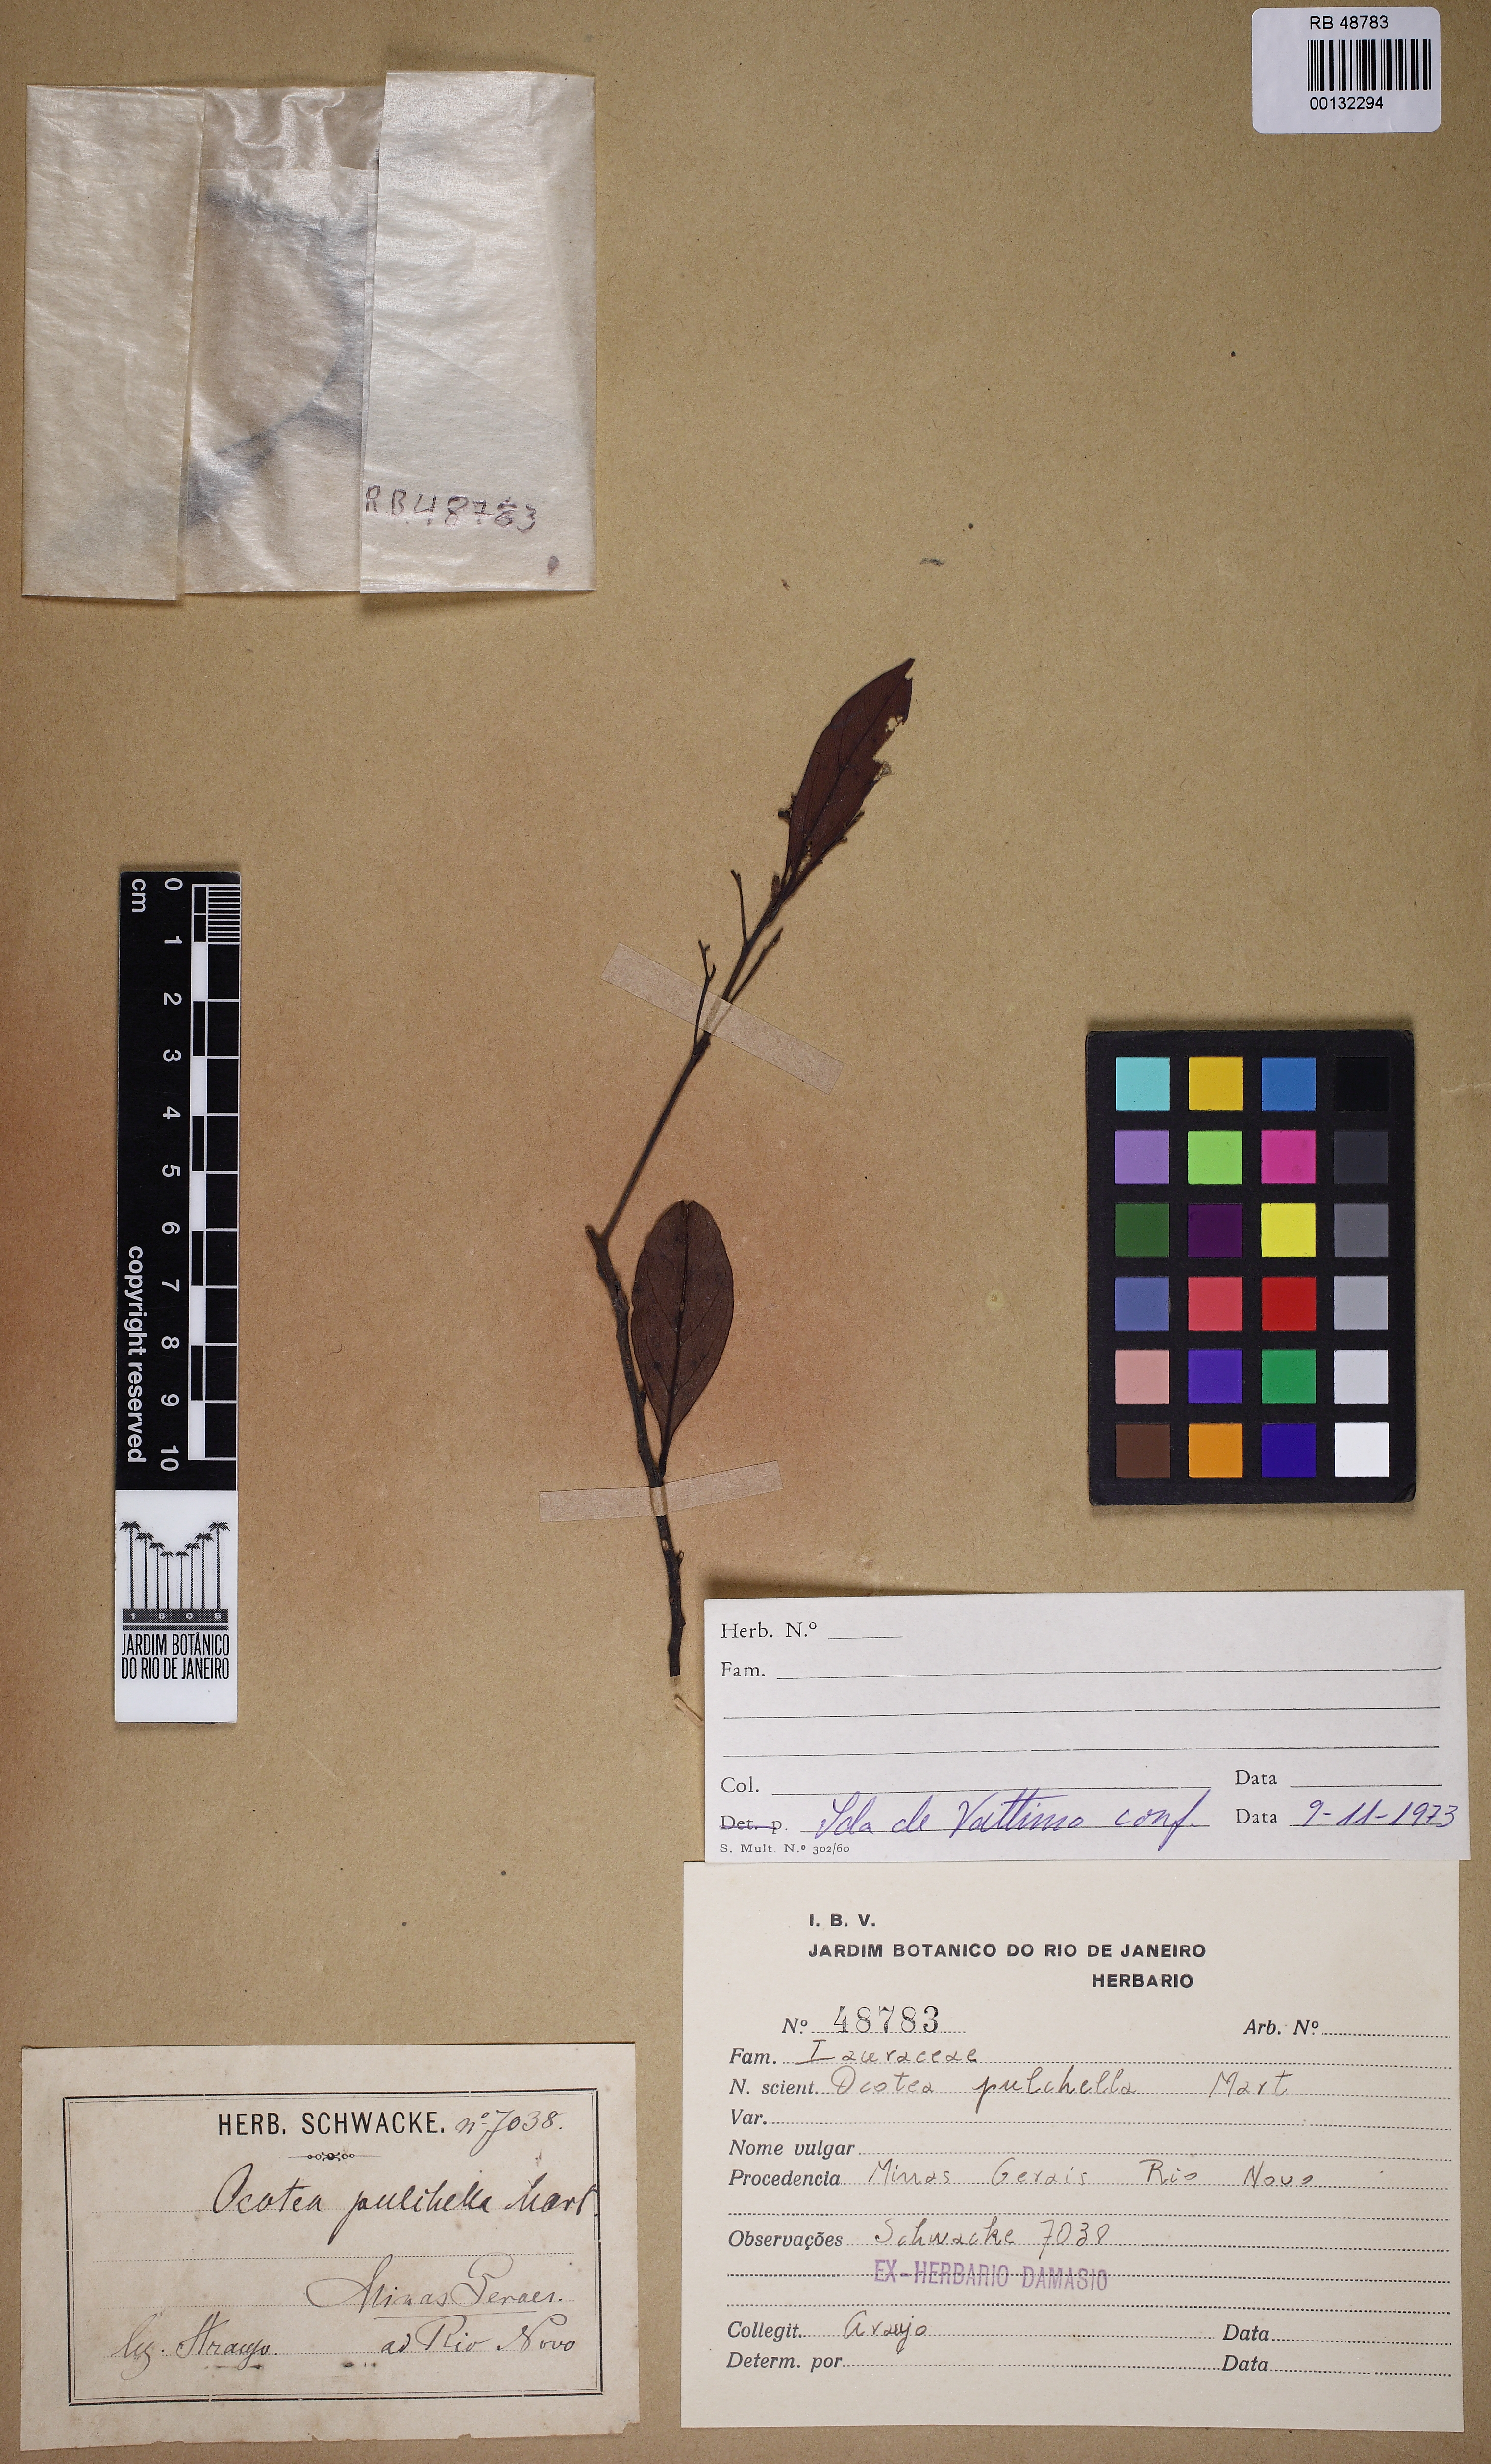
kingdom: Plantae
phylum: Tracheophyta
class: Magnoliopsida
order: Laurales
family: Lauraceae
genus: Mespilodaphne
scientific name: Mespilodaphne pulchella
